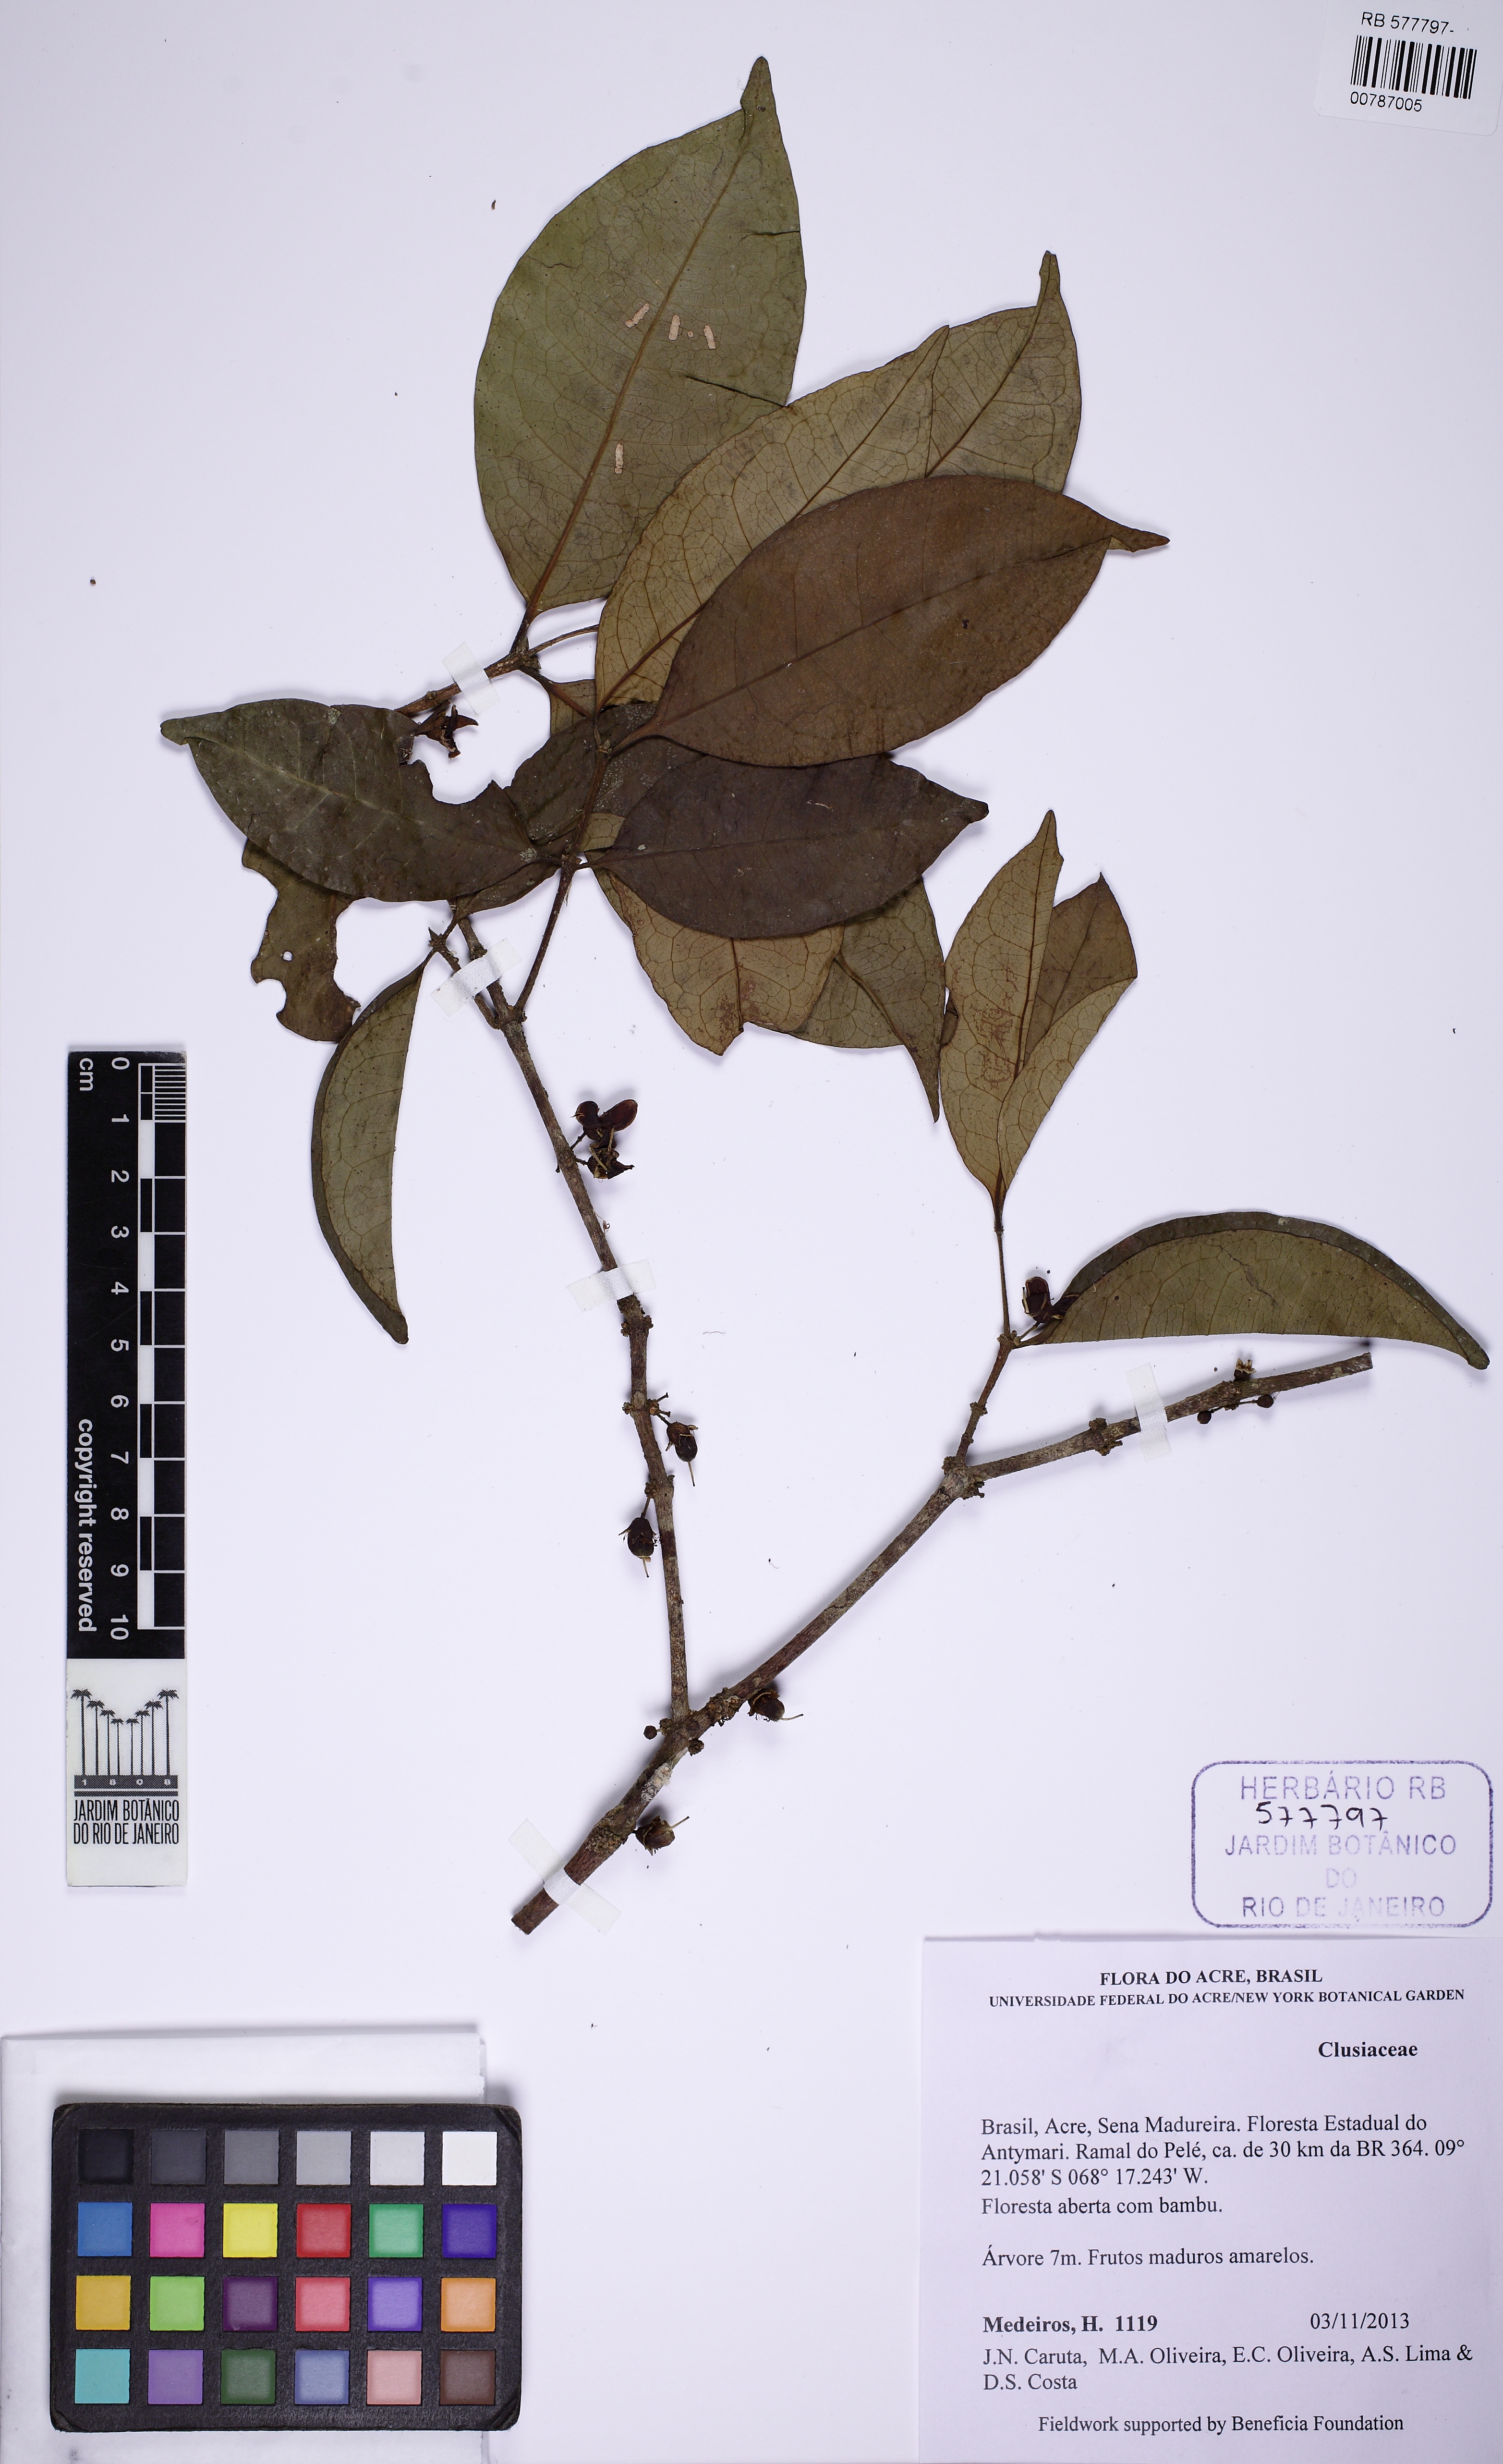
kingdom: Plantae
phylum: Tracheophyta
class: Magnoliopsida
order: Malpighiales
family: Clusiaceae
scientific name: Clusiaceae
